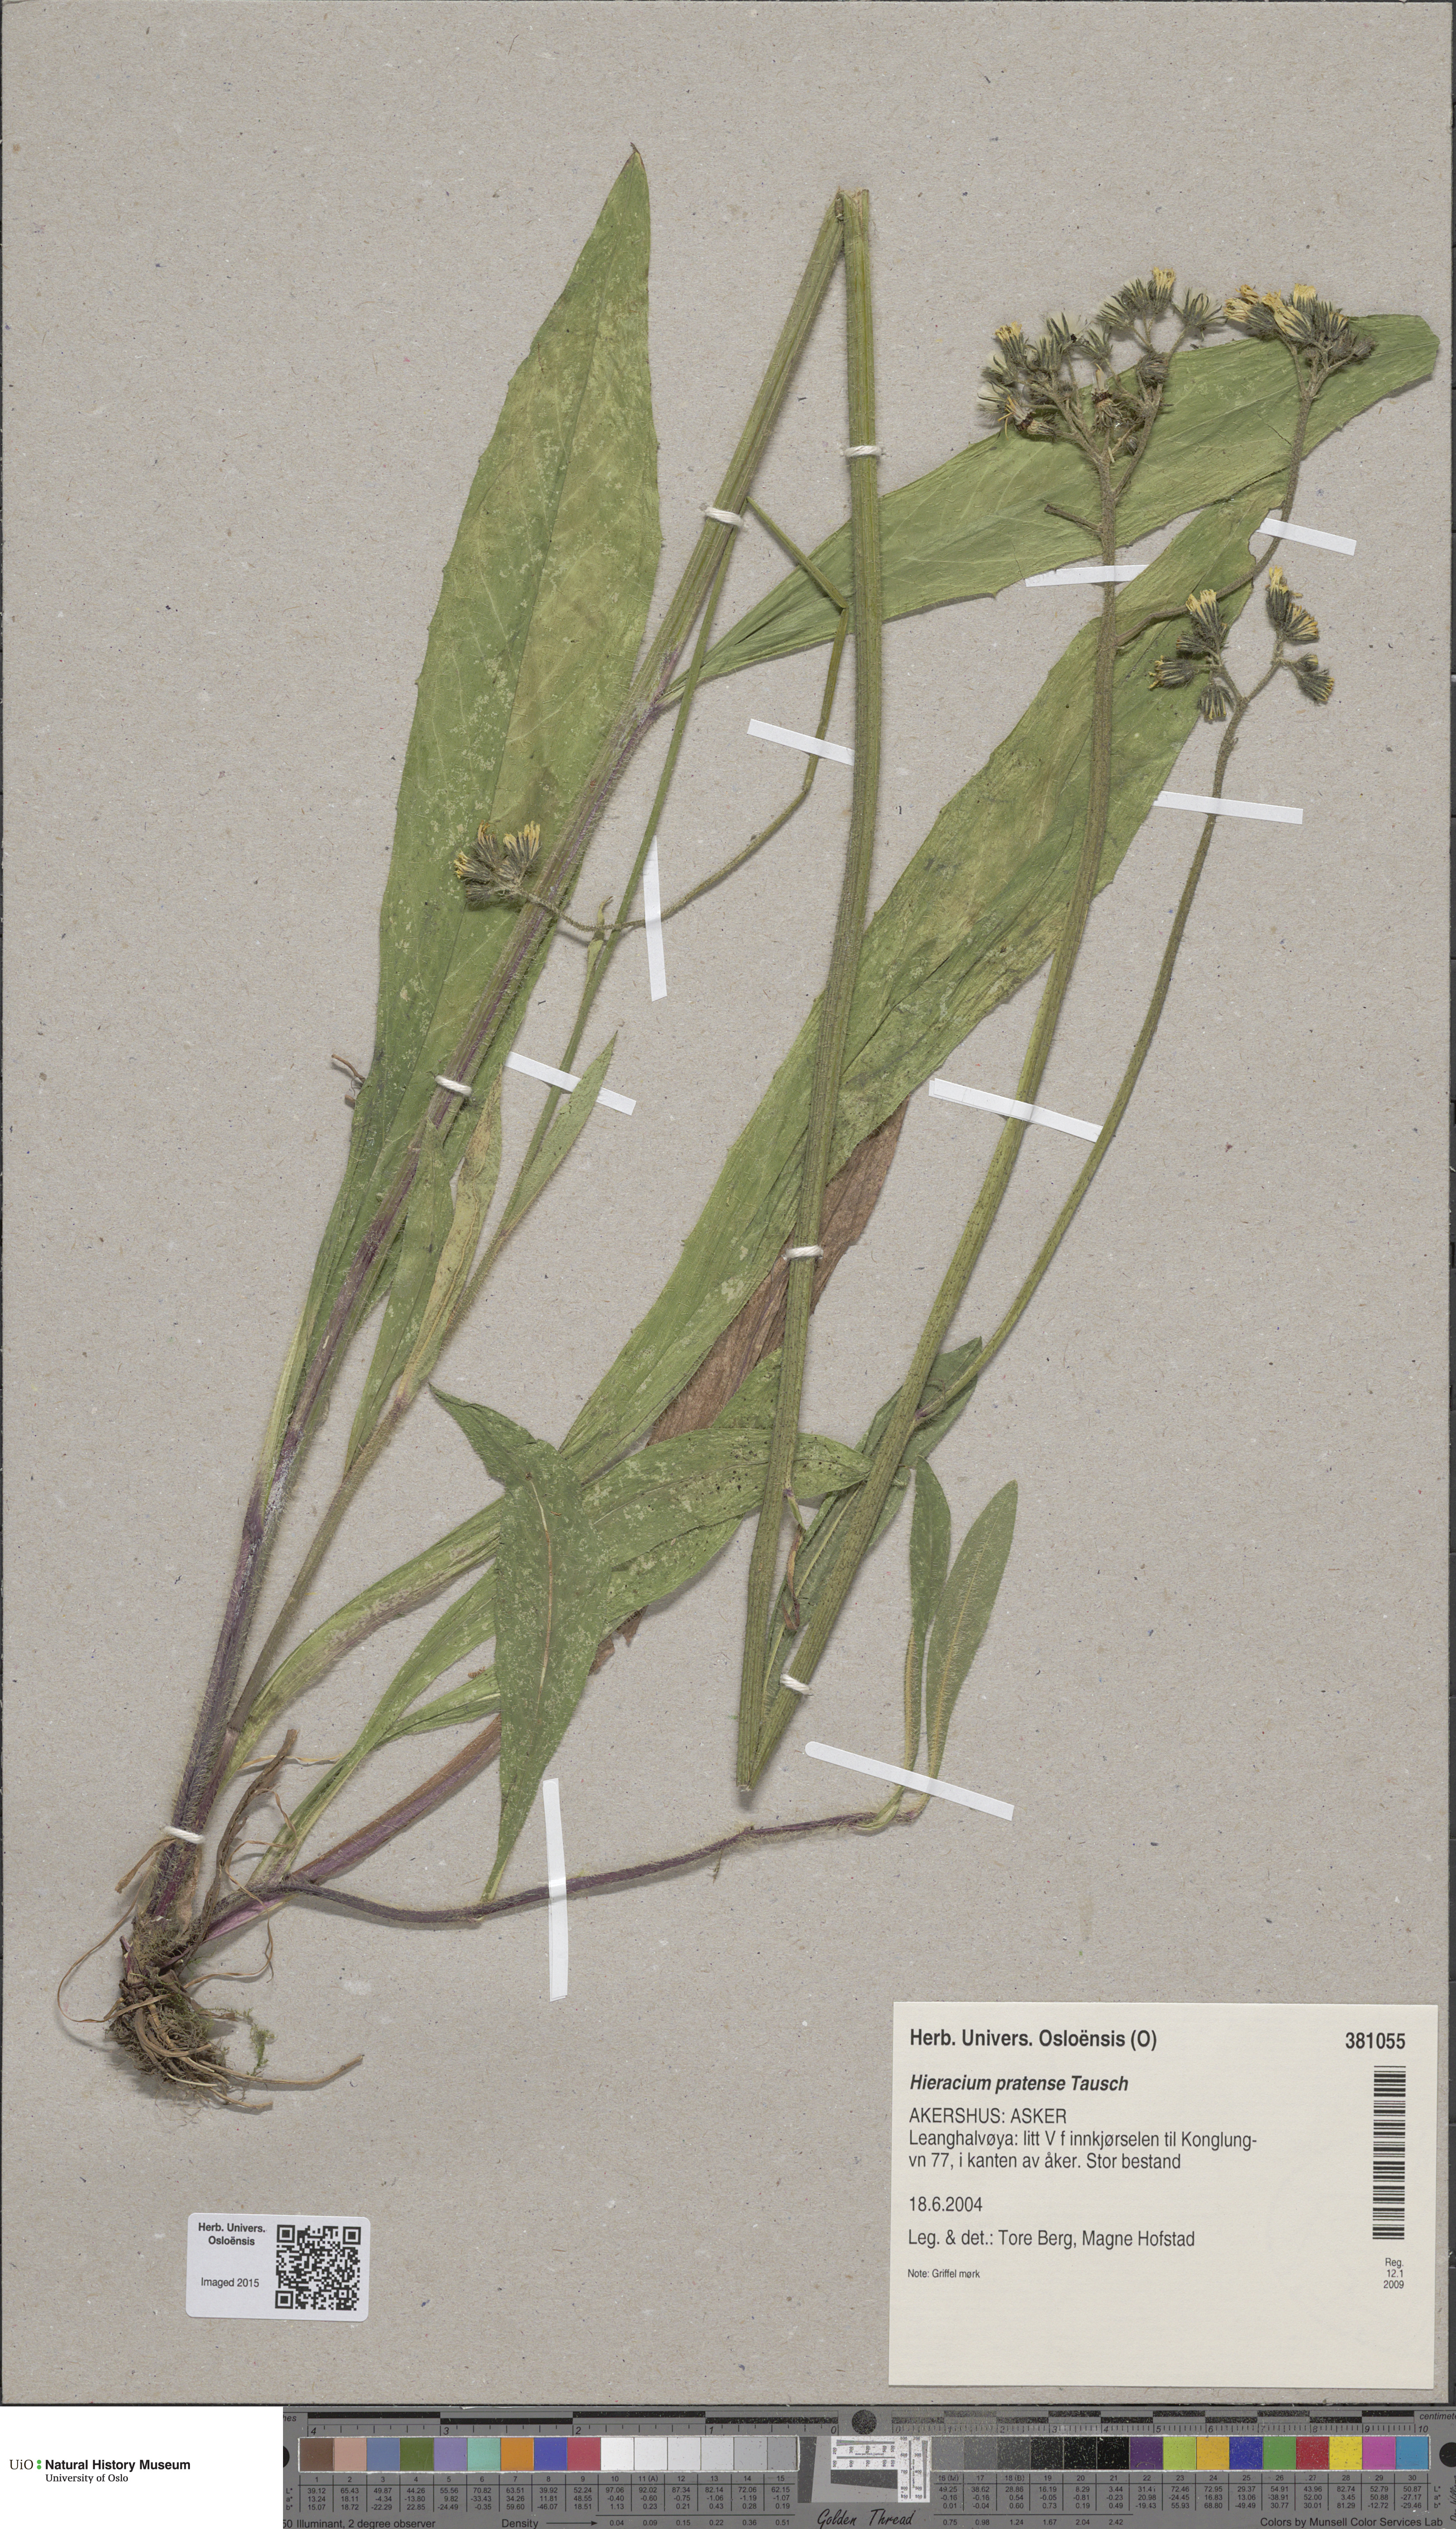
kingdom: Plantae
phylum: Tracheophyta
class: Magnoliopsida
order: Asterales
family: Asteraceae
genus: Pilosella
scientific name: Pilosella caespitosa
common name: Yellow fox-and-cubs
